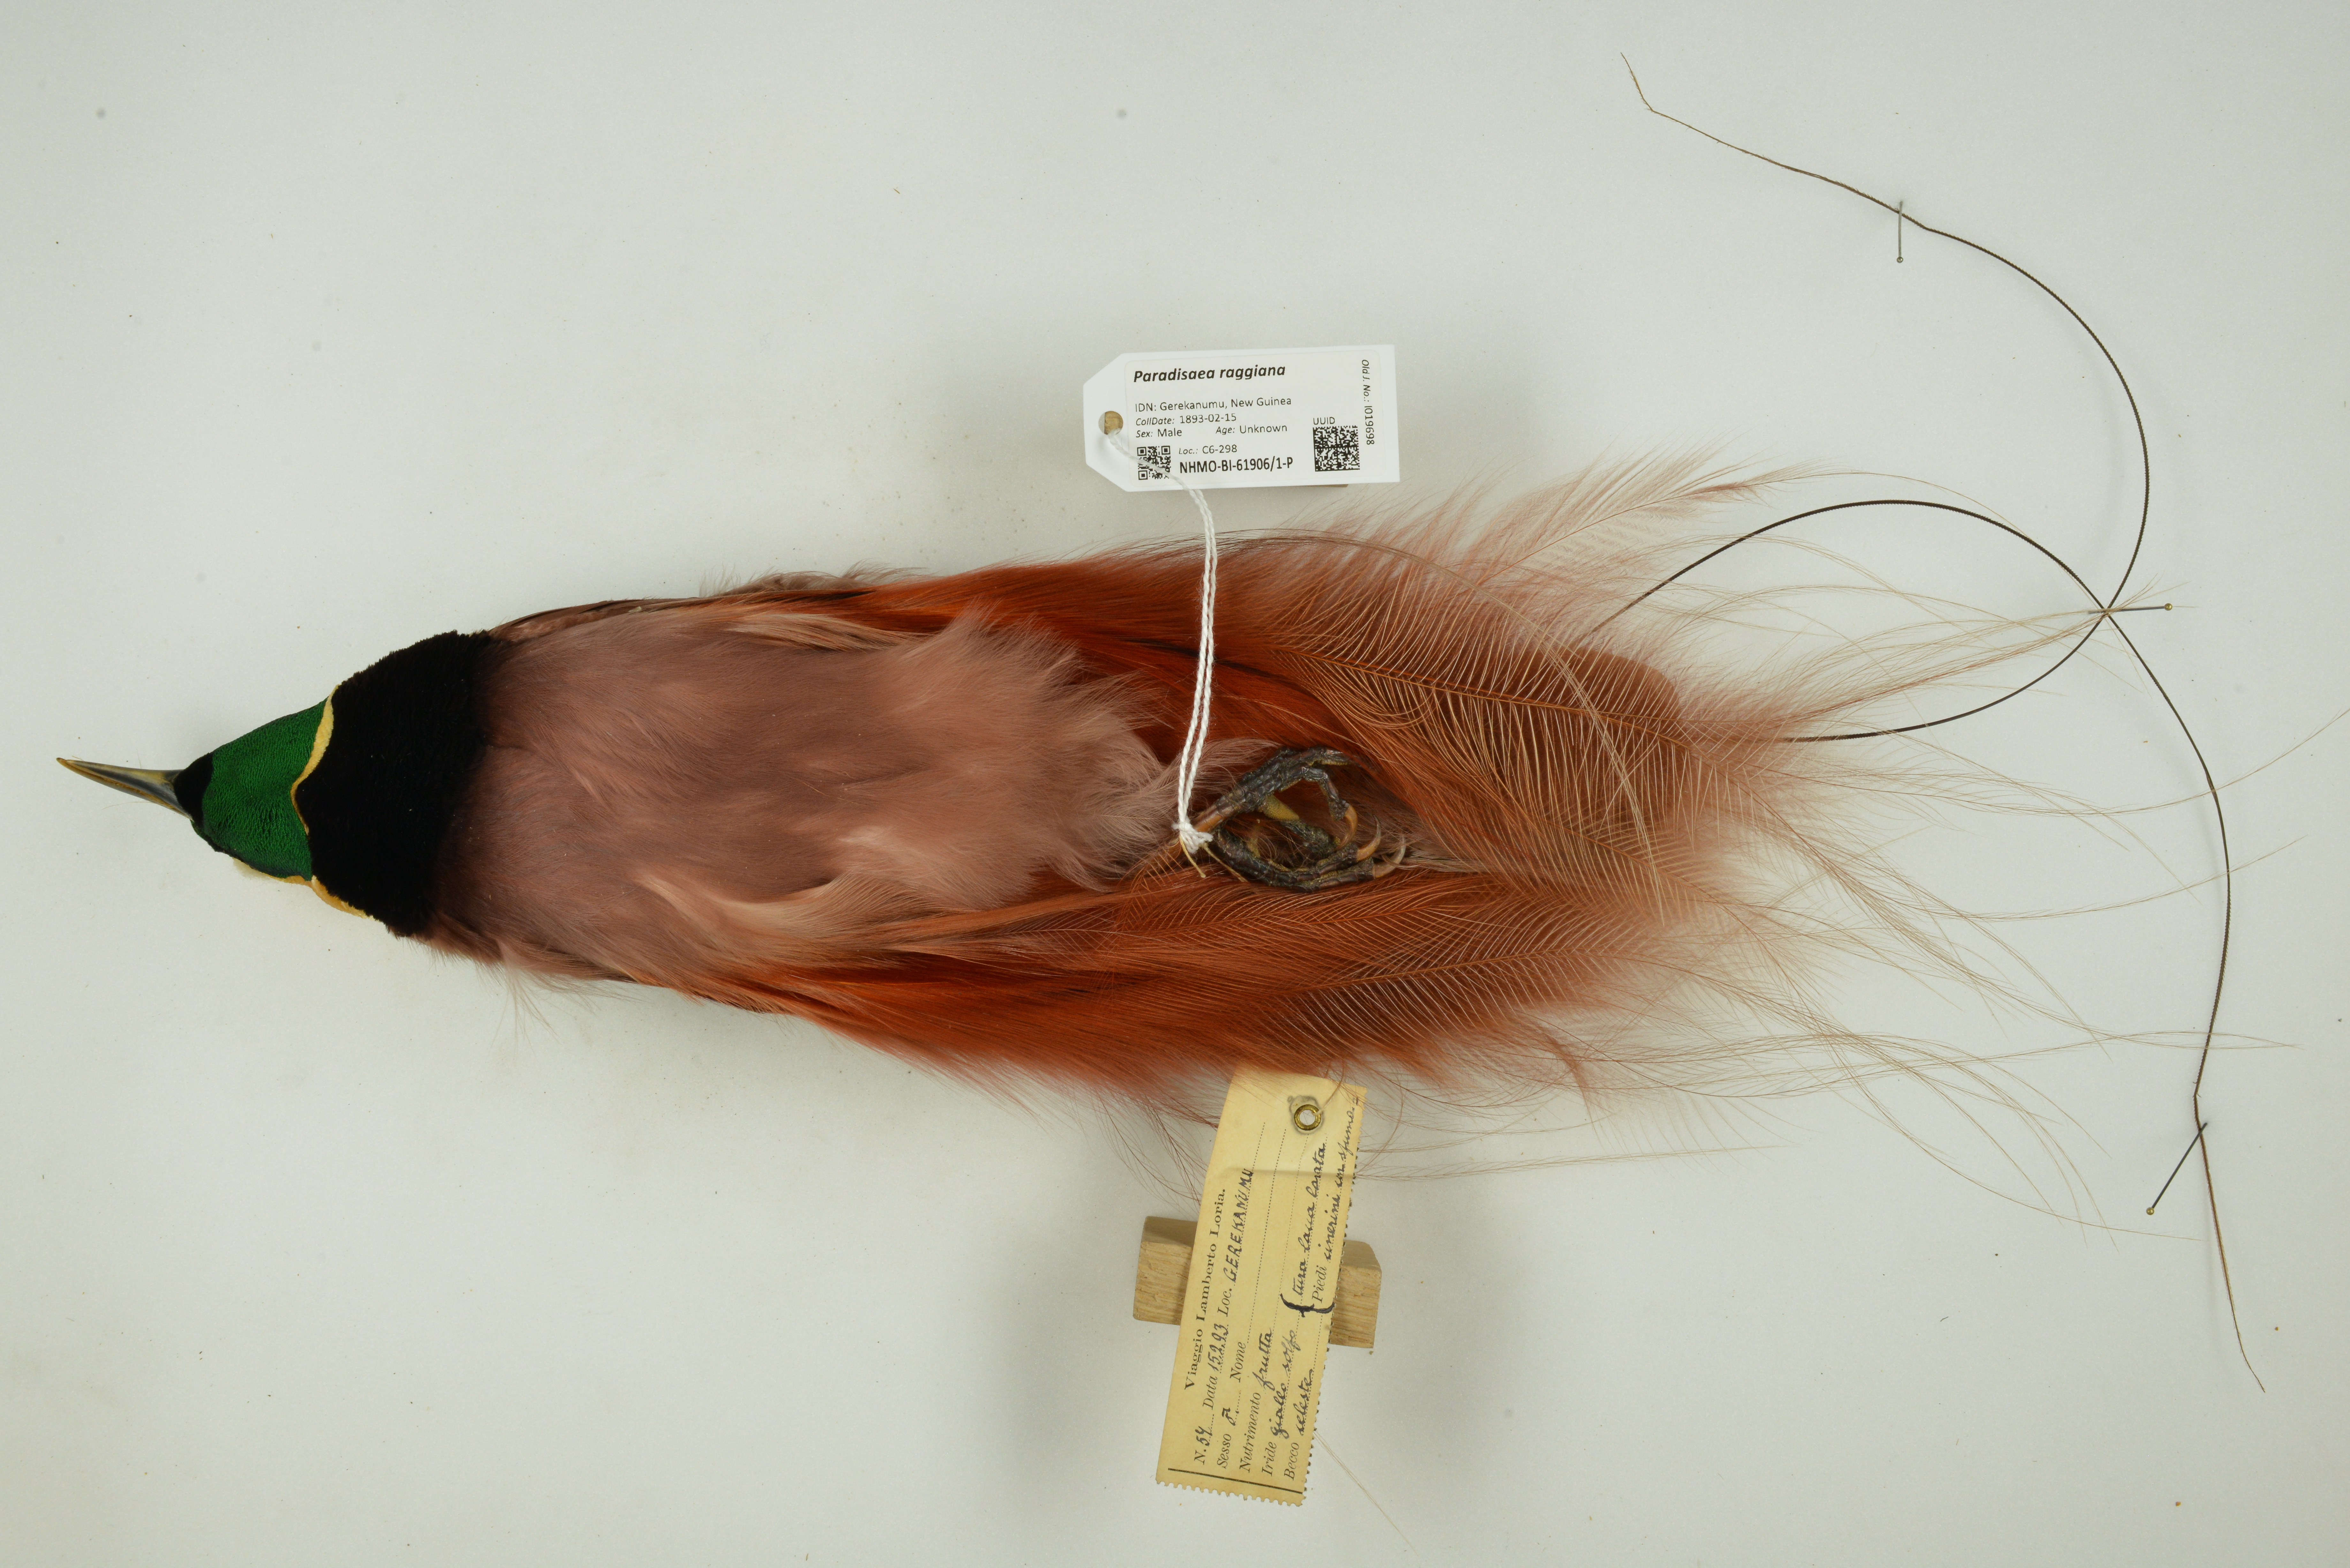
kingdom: Animalia
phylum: Chordata
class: Aves
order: Passeriformes
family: Paradisaeidae
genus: Paradisaea
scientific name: Paradisaea raggiana
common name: Raggiana bird-of-paradise
